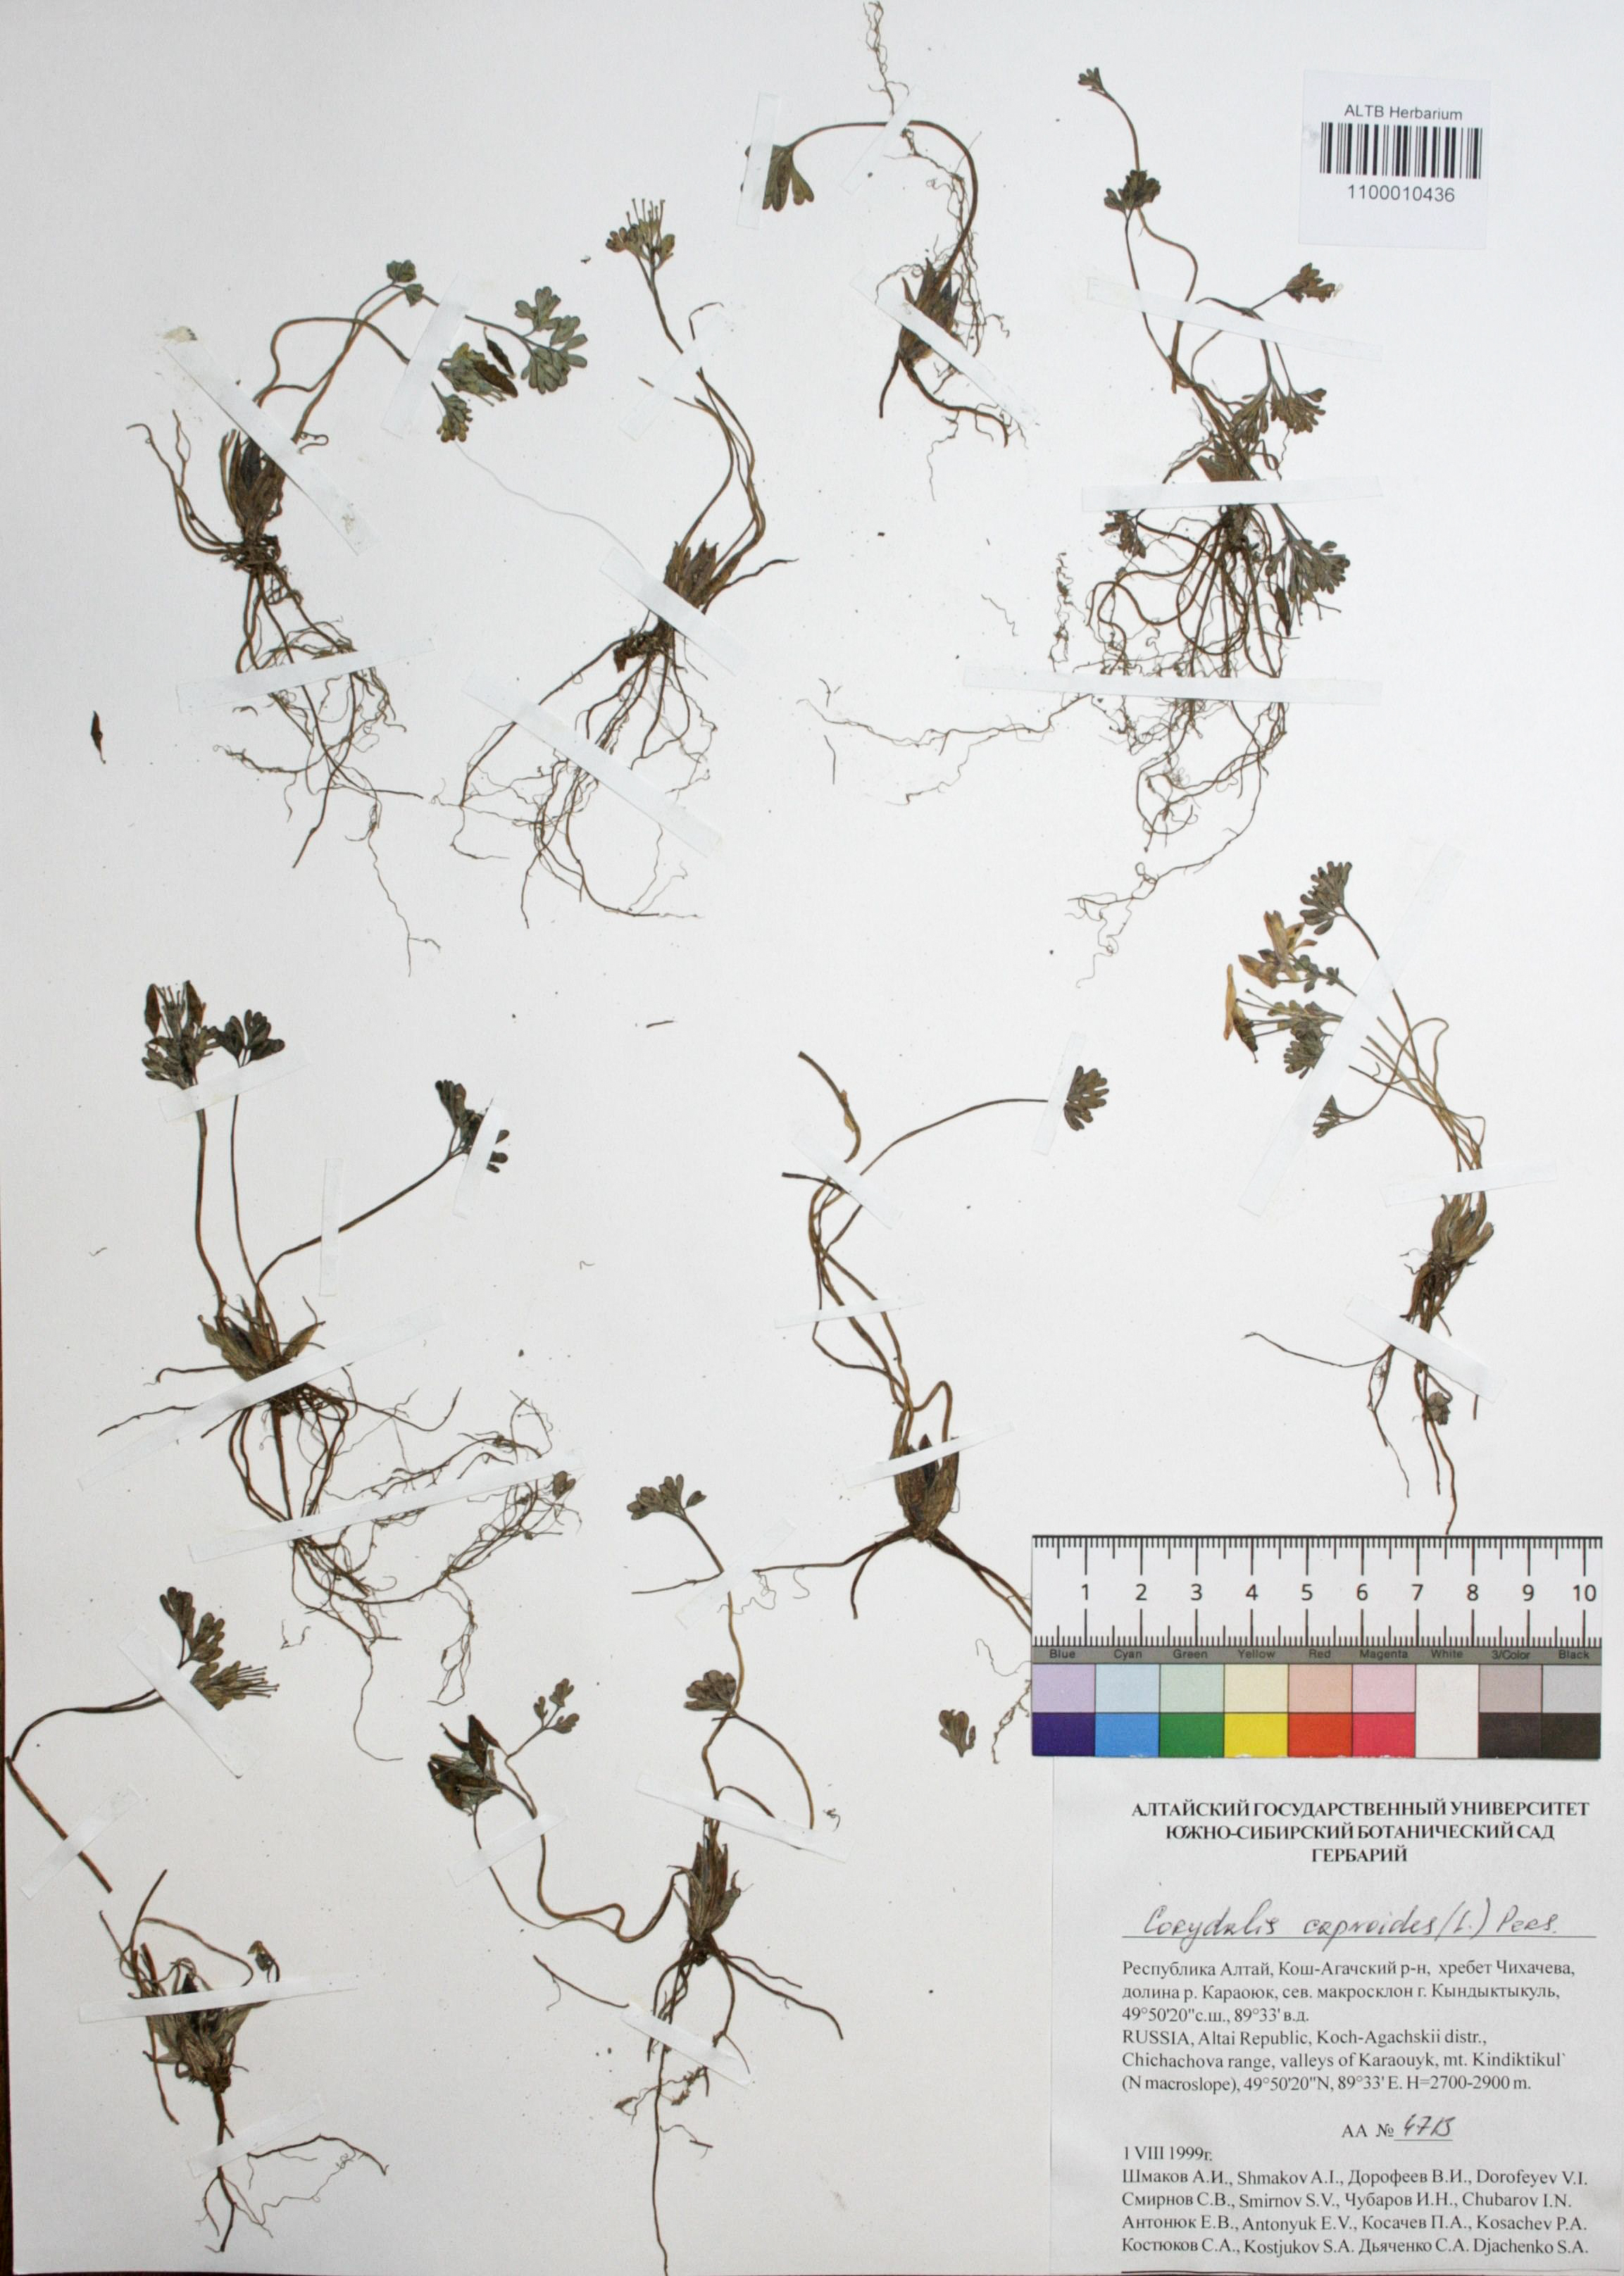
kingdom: Plantae
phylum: Tracheophyta
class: Magnoliopsida
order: Ranunculales
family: Papaveraceae
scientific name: Papaveraceae
